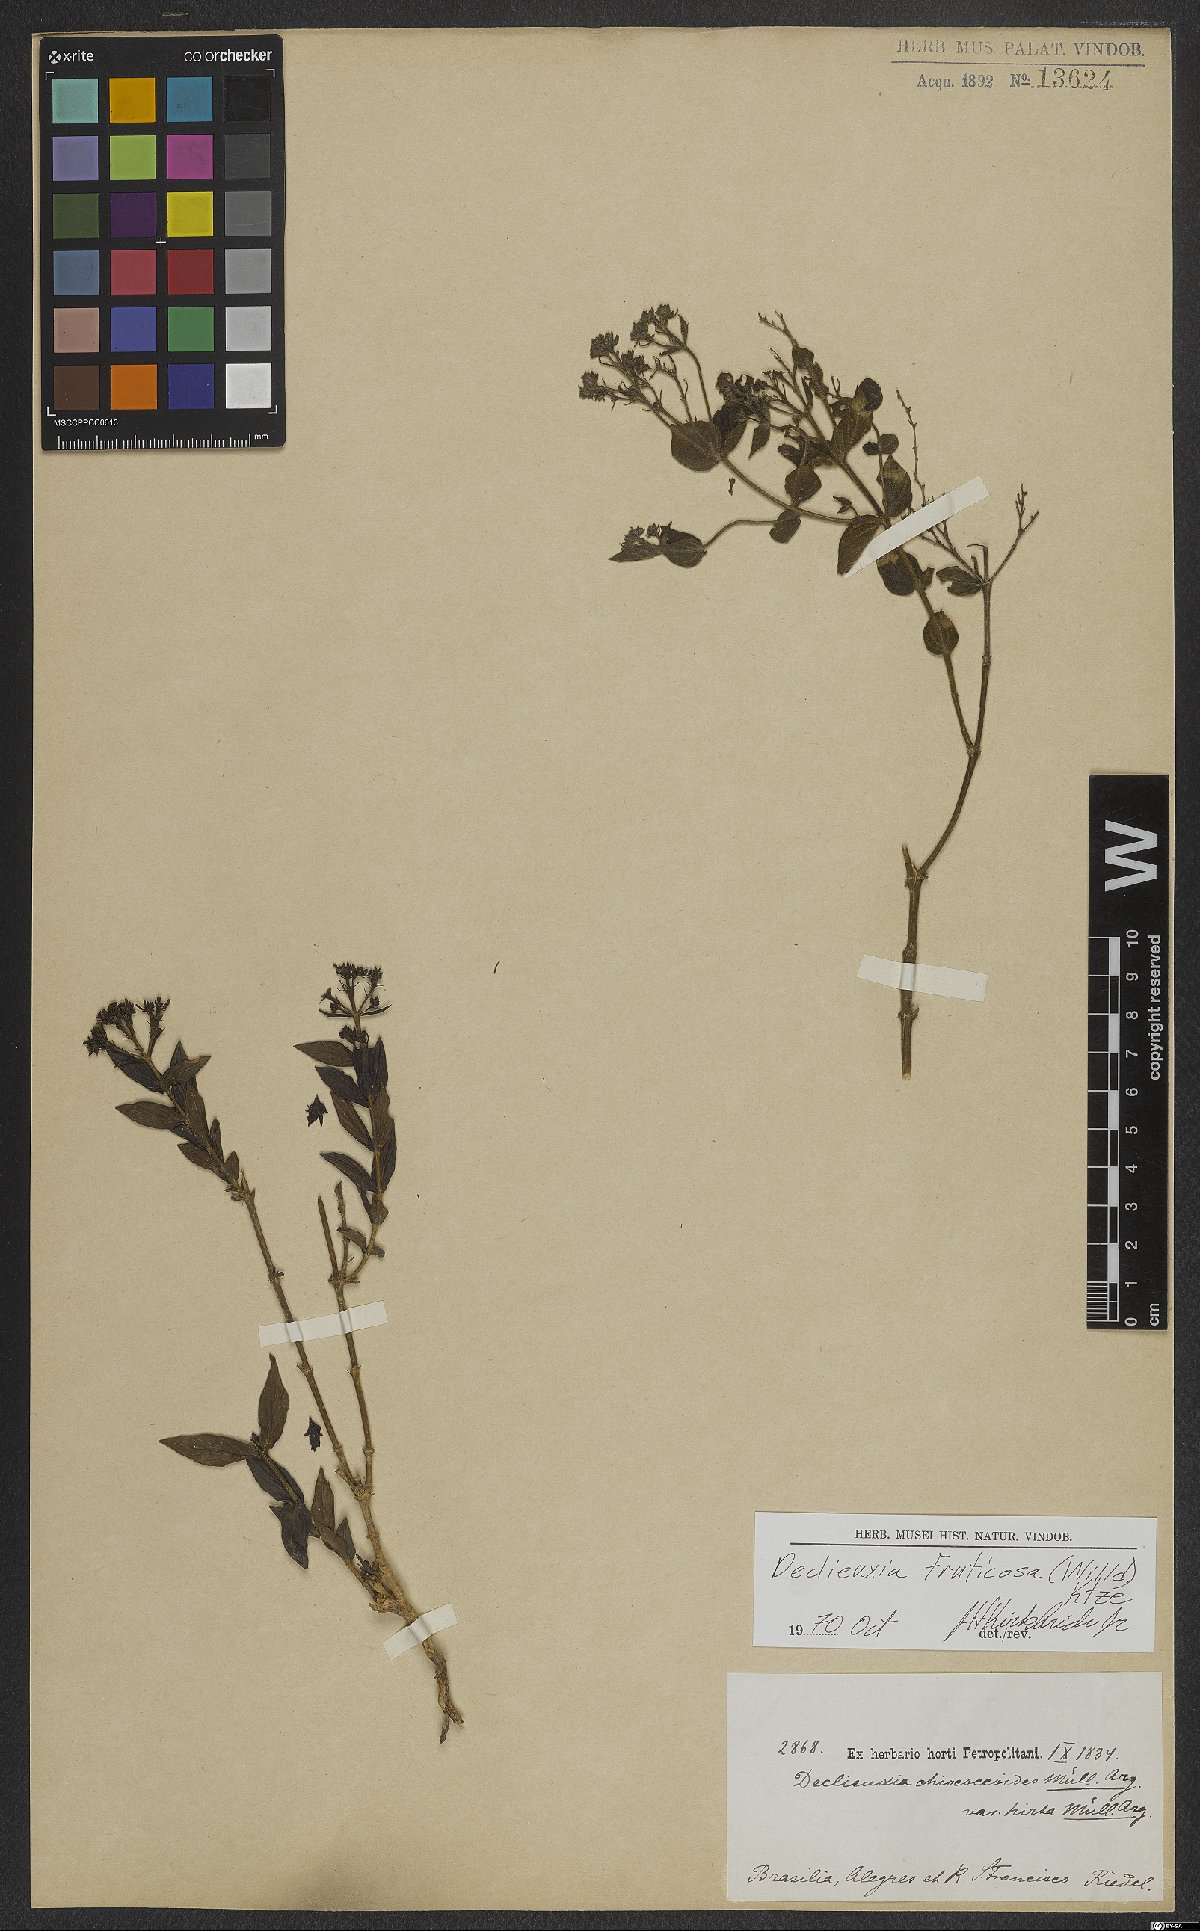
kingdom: Plantae
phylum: Tracheophyta
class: Magnoliopsida
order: Gentianales
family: Rubiaceae
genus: Declieuxia
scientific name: Declieuxia fruticosa
